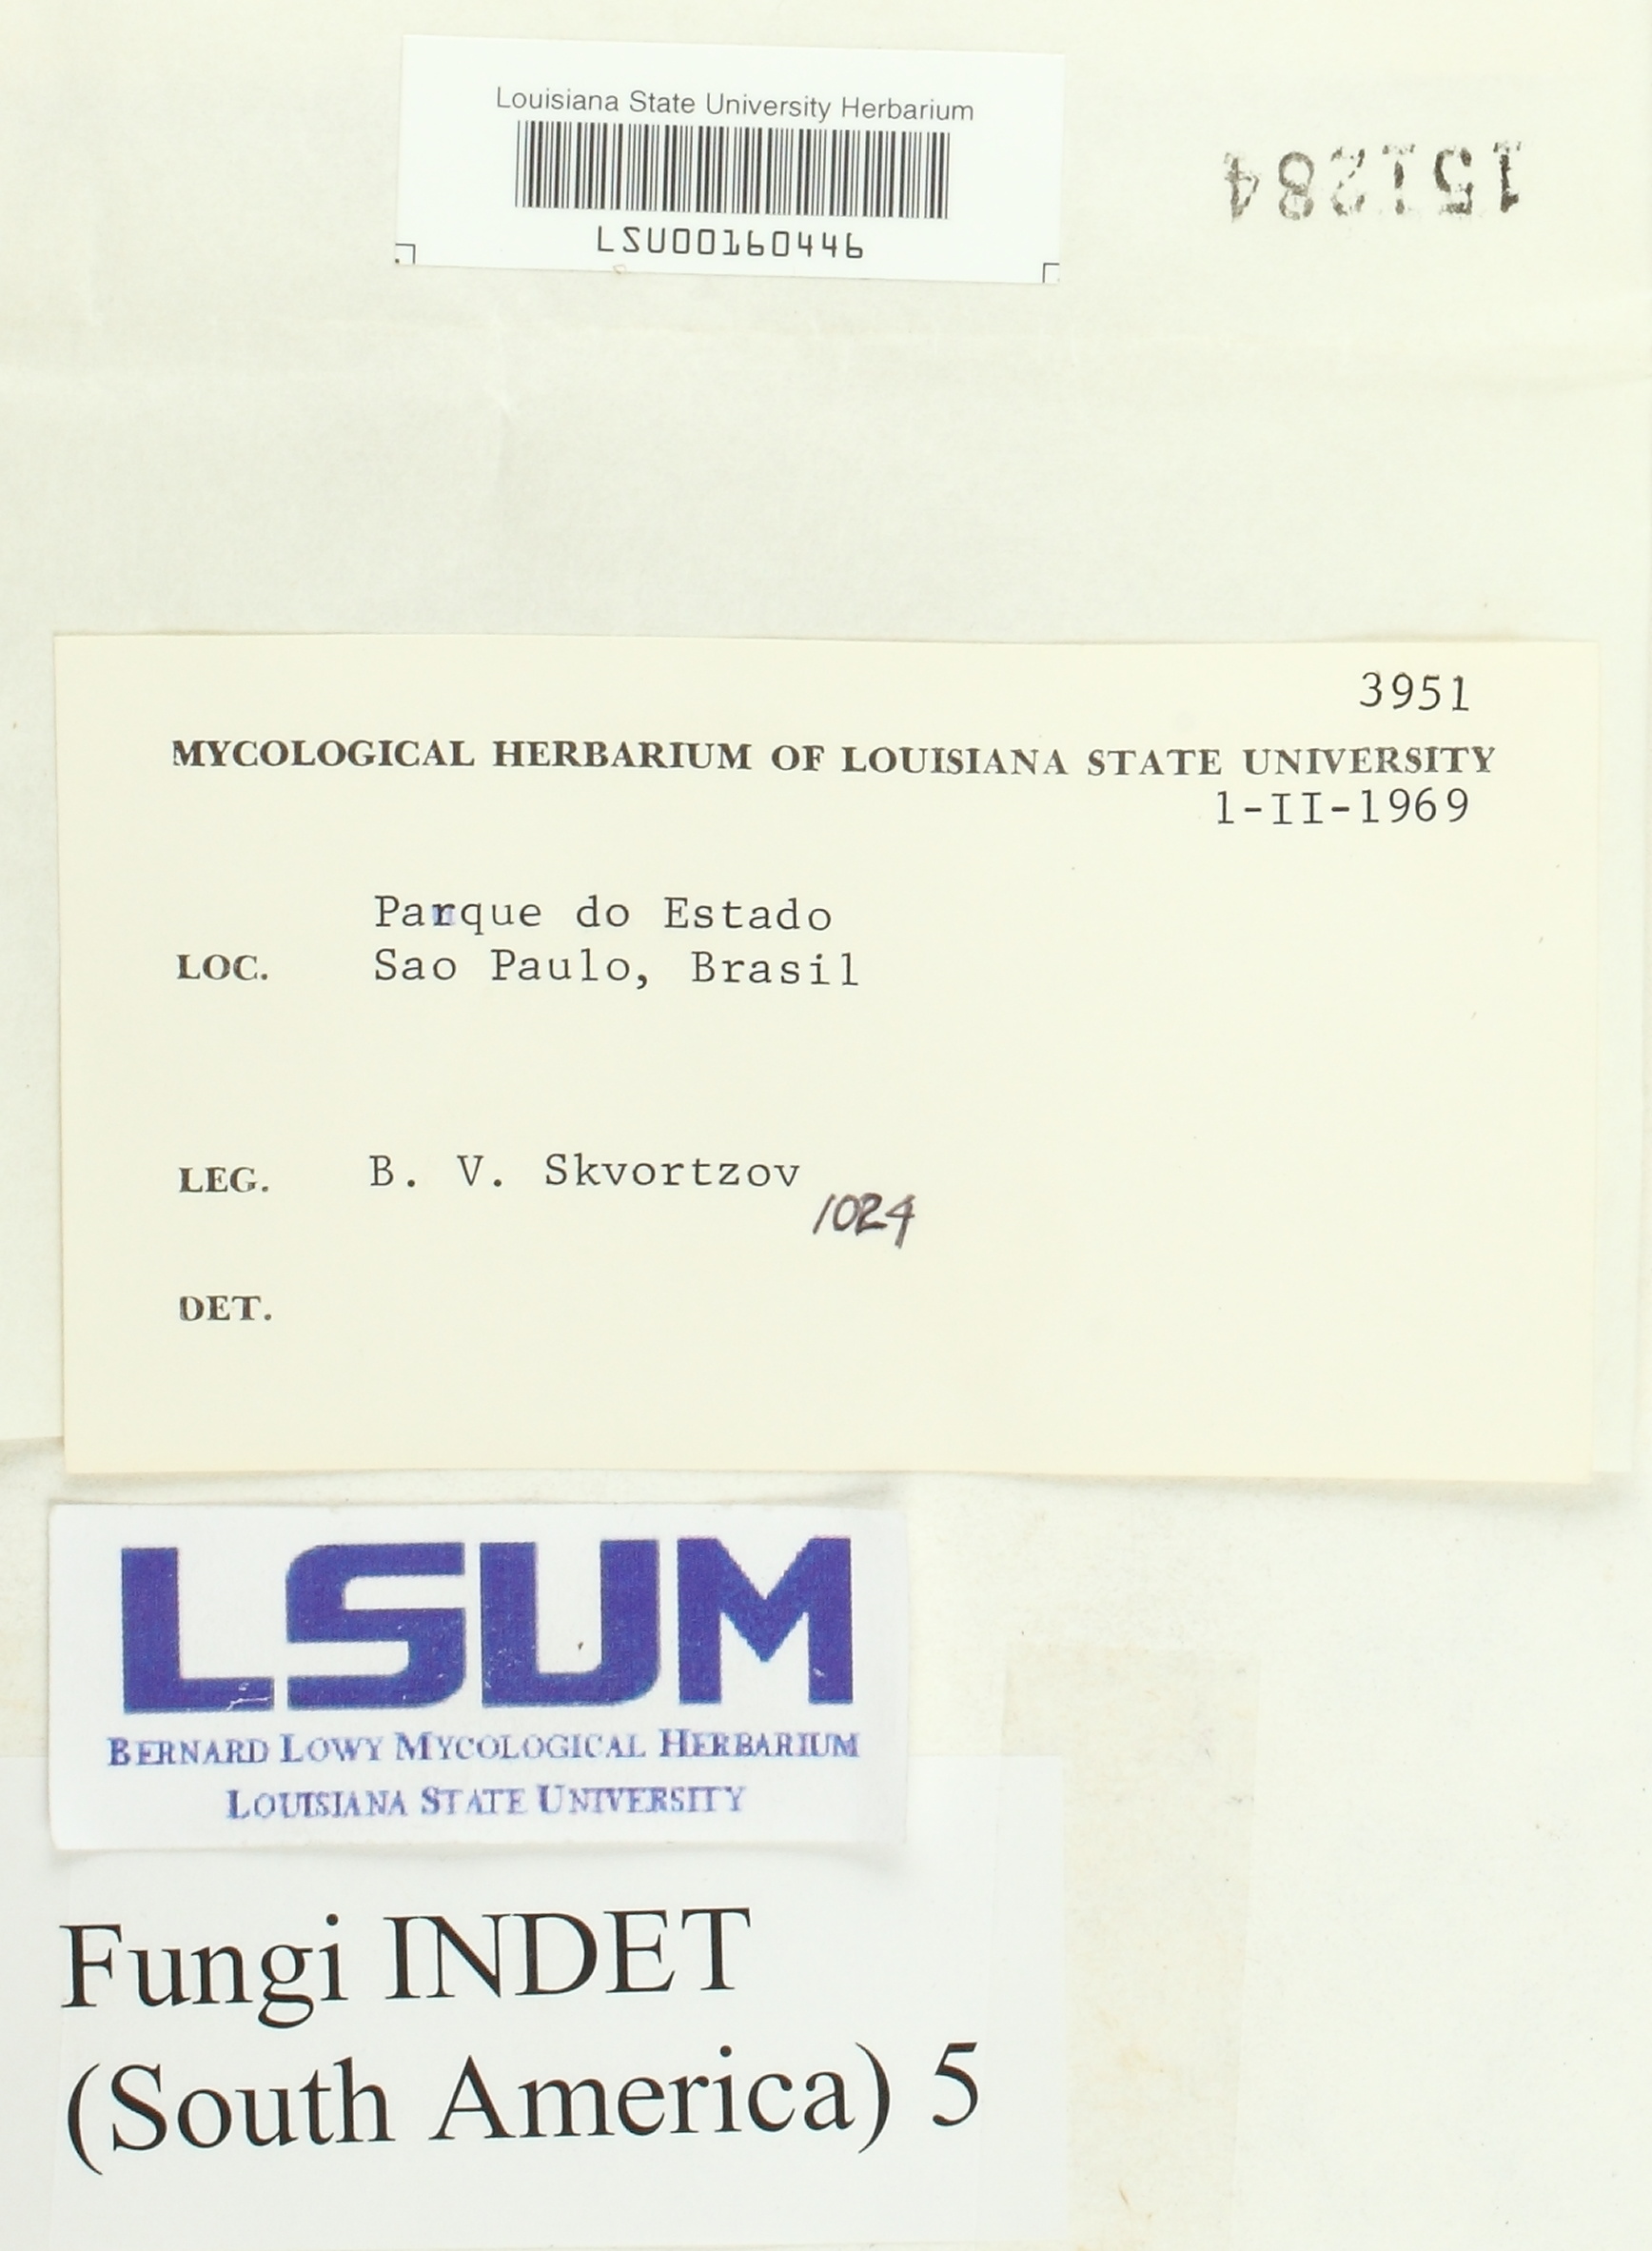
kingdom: Fungi
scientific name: Fungi
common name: Fungi
